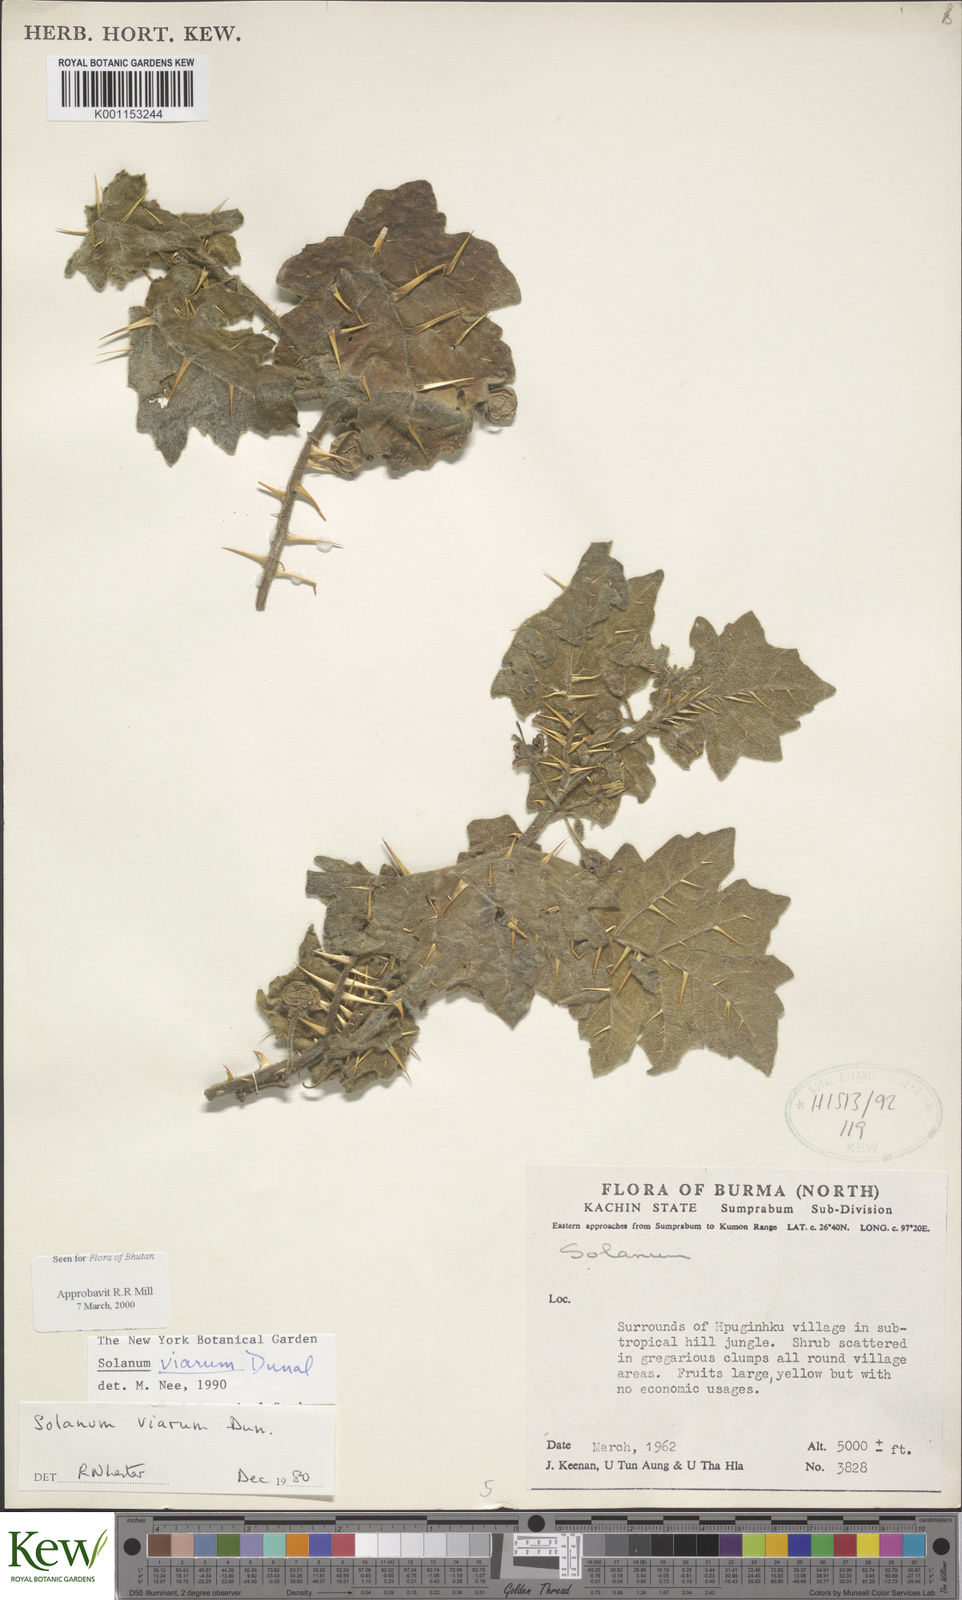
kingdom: Plantae
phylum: Tracheophyta
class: Magnoliopsida
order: Solanales
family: Solanaceae
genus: Solanum
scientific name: Solanum viarum
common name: Tropical soda apple
